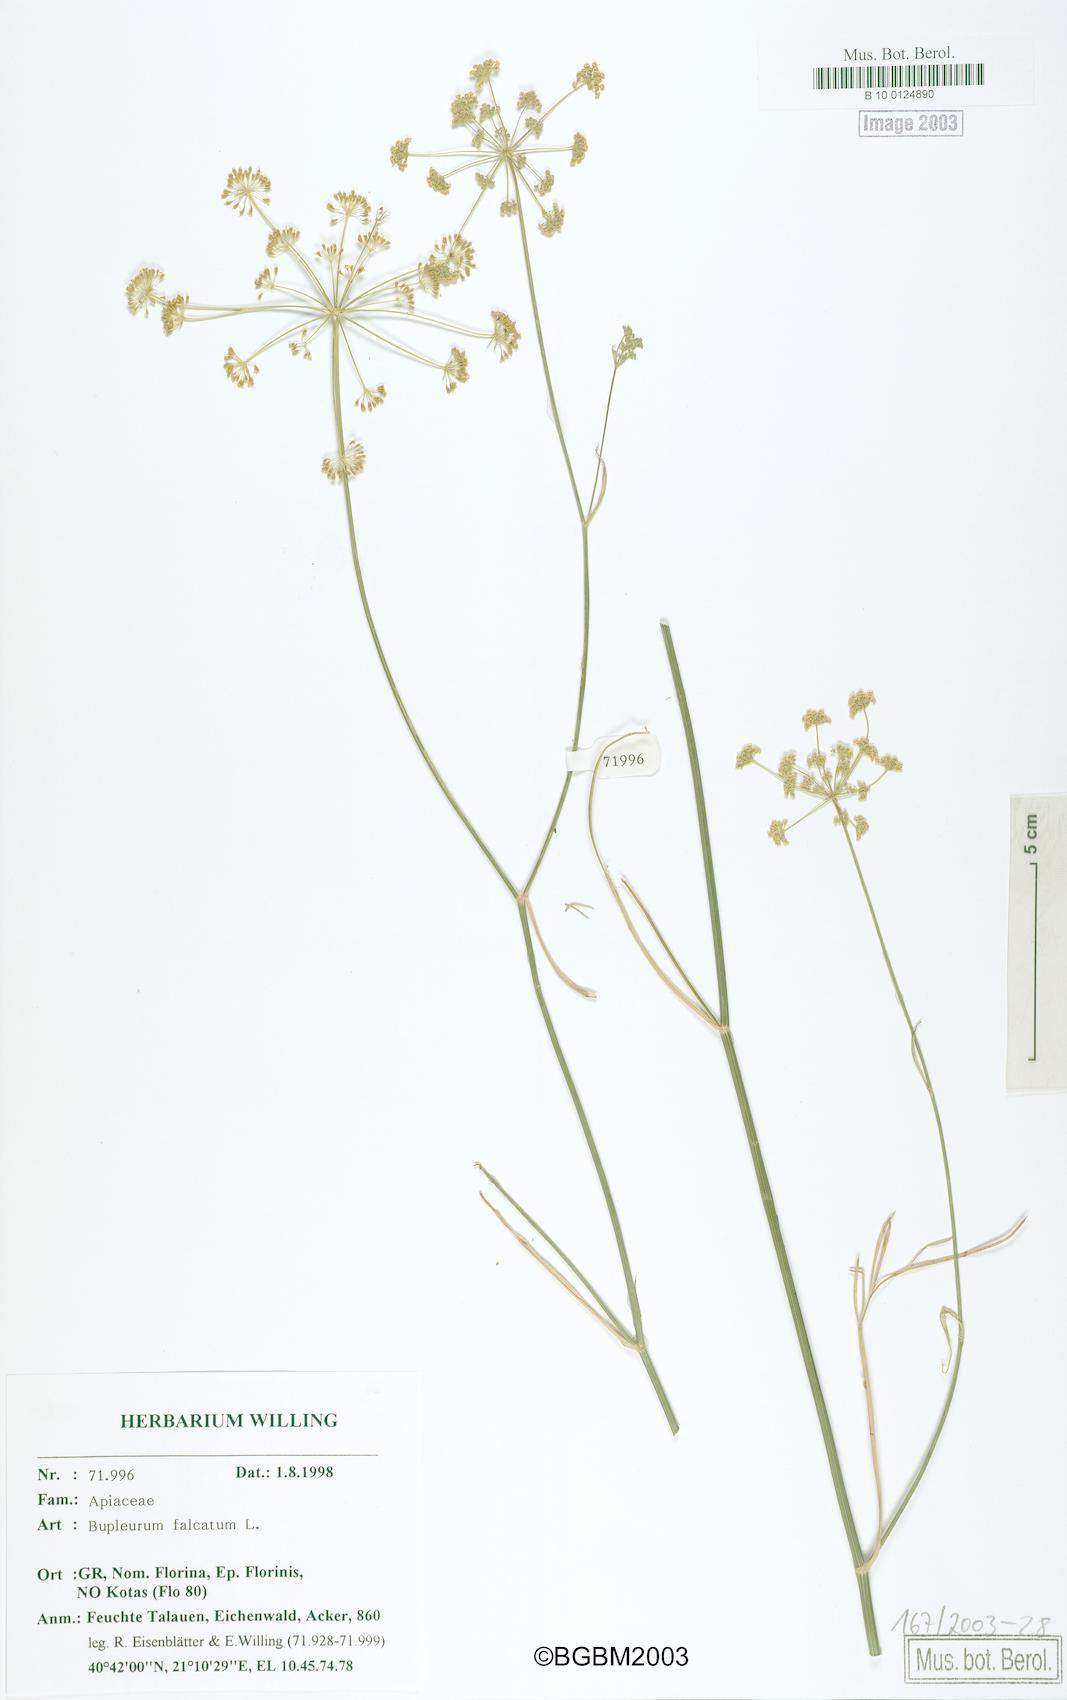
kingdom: Plantae
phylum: Tracheophyta
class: Magnoliopsida
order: Apiales
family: Apiaceae
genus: Bupleurum
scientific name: Bupleurum falcatum
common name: Sickle-leaved hare's-ear
